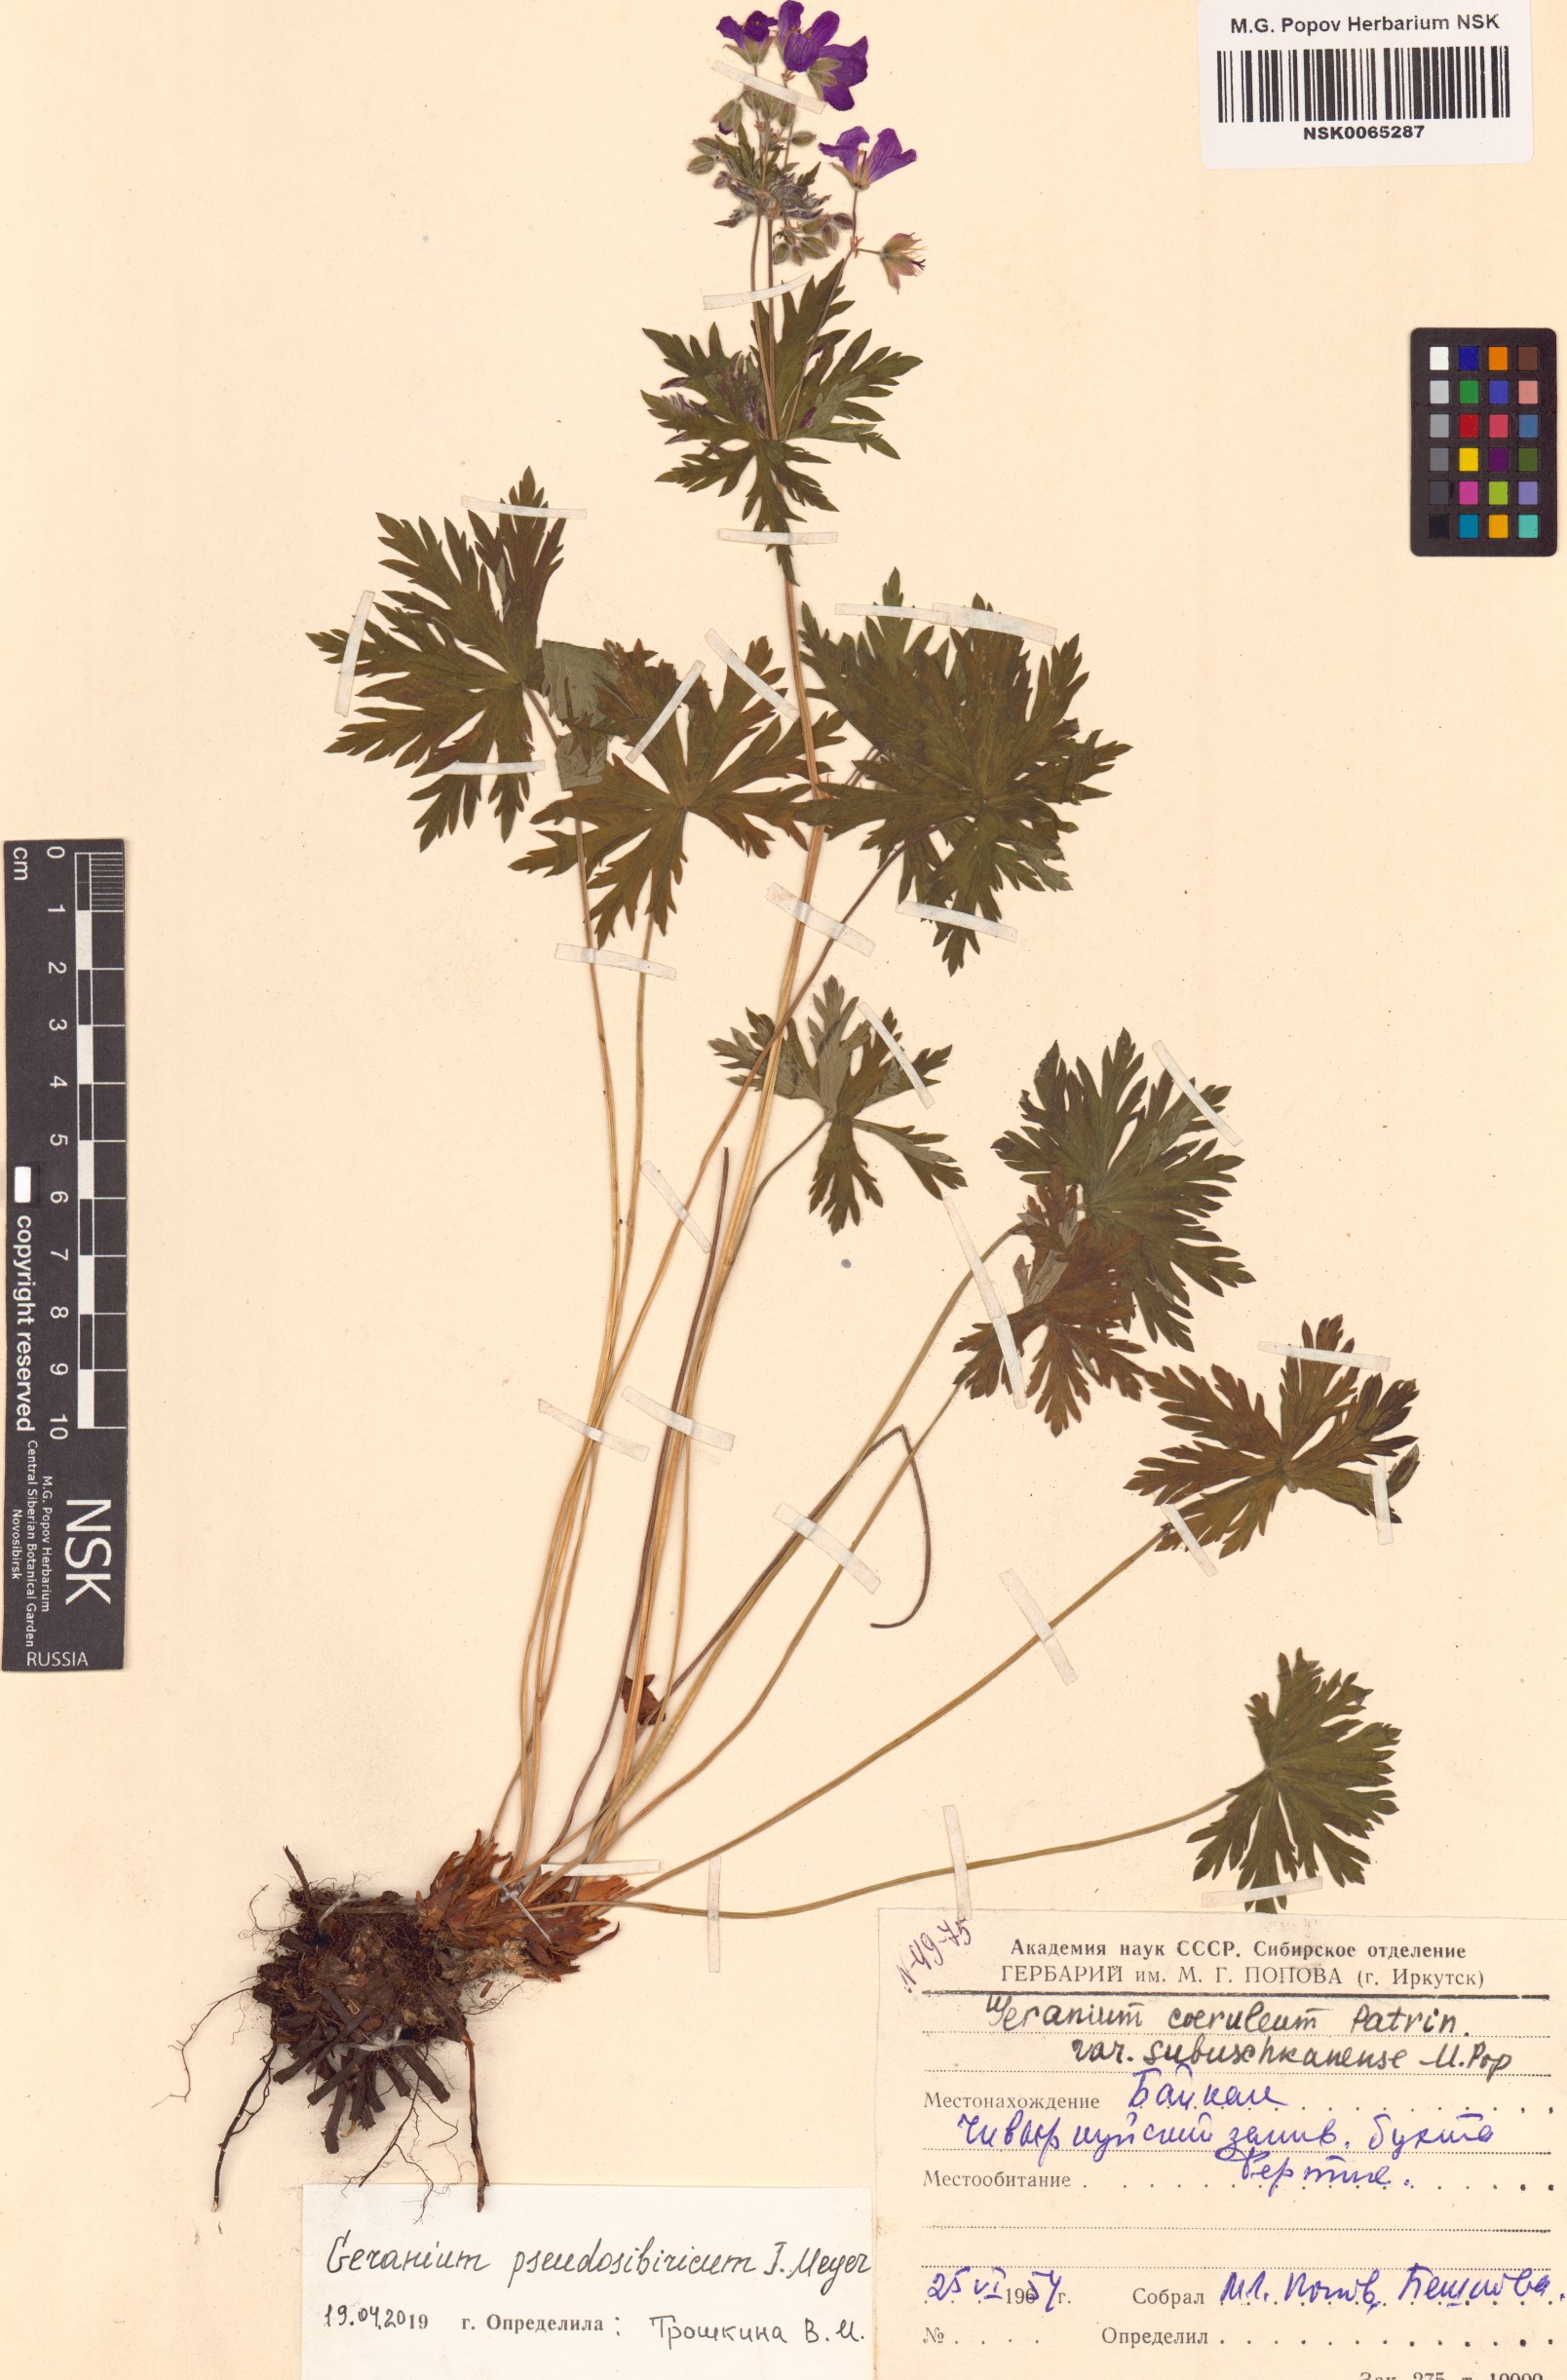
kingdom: Plantae
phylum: Tracheophyta
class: Magnoliopsida
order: Geraniales
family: Geraniaceae
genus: Geranium
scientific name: Geranium pseudosibiricum
